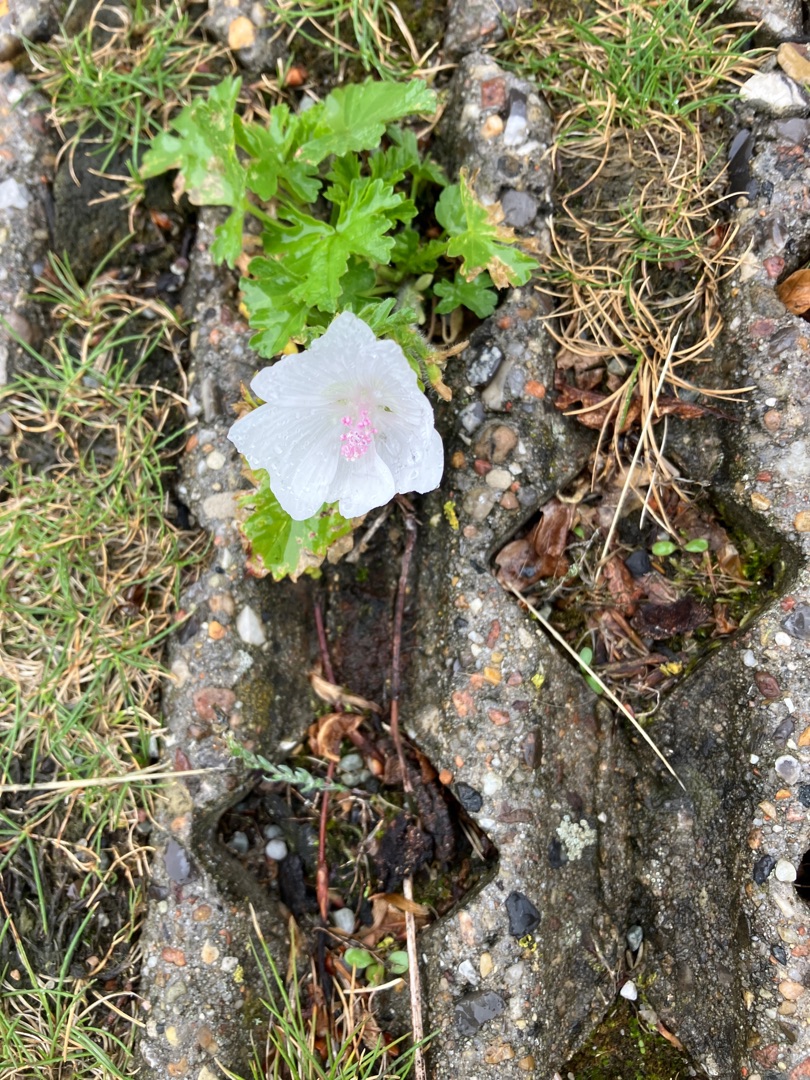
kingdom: Plantae
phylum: Tracheophyta
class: Magnoliopsida
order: Malvales
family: Malvaceae
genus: Malva
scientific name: Malva
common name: Katostslægten
